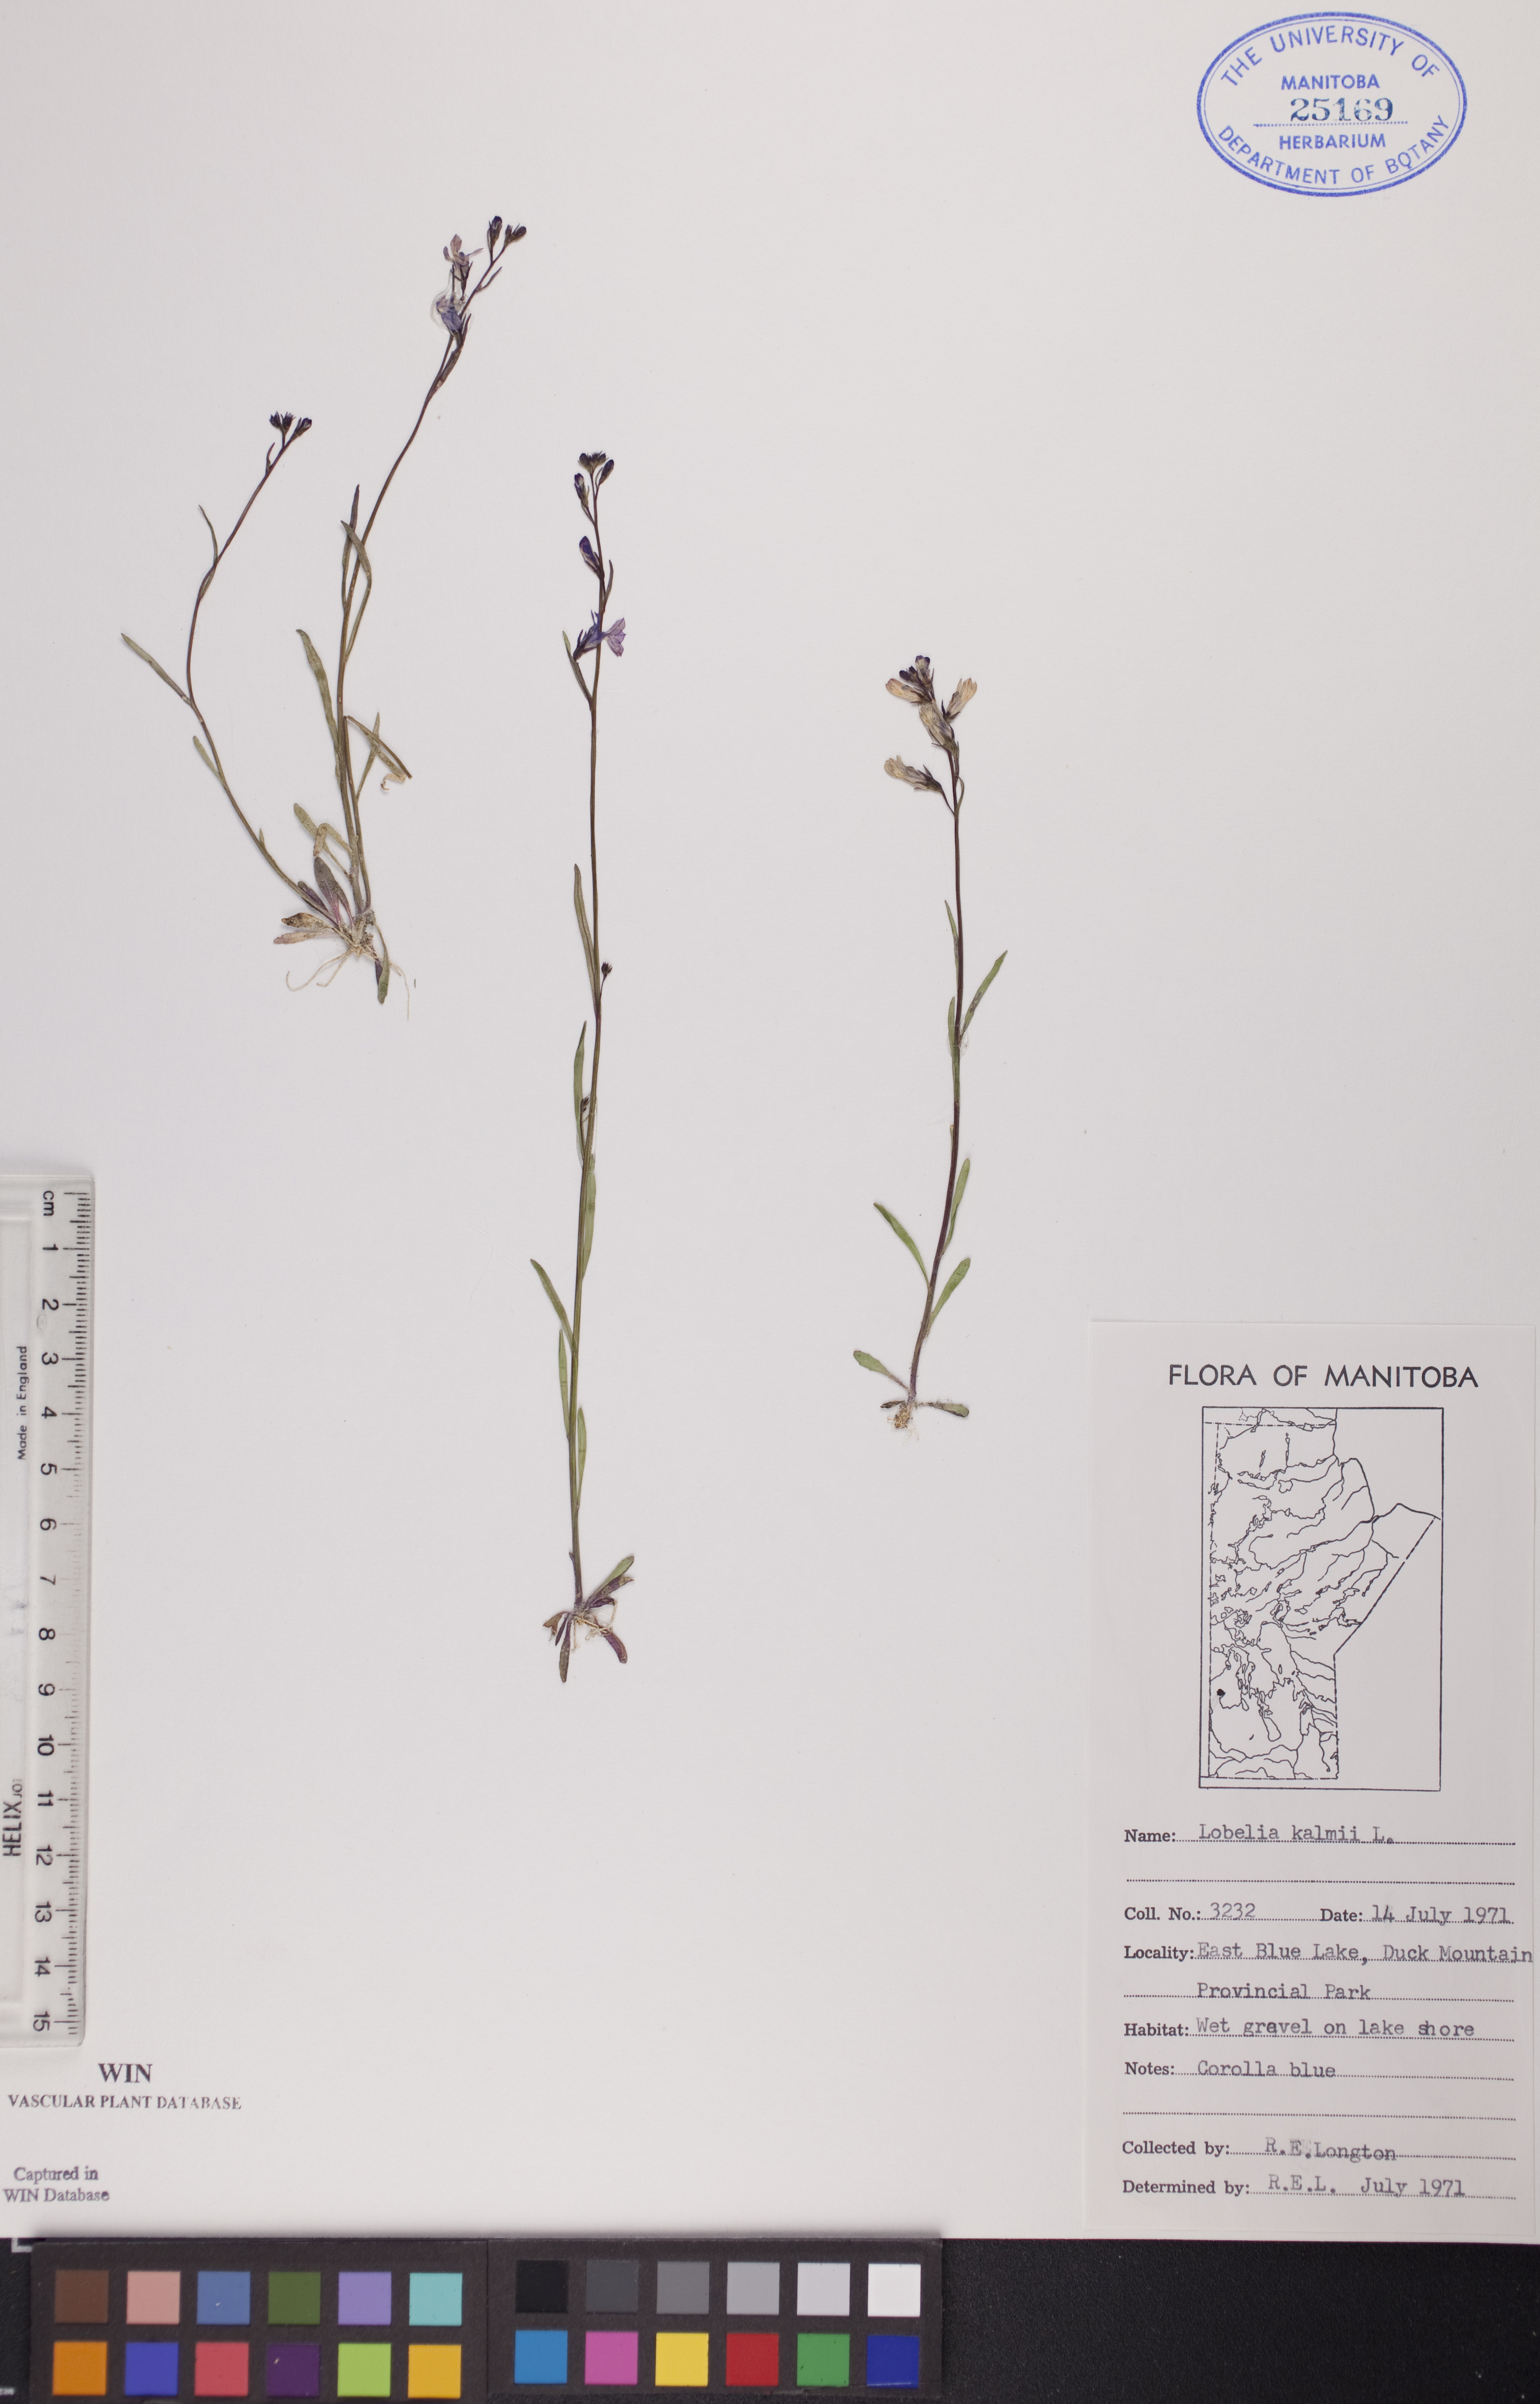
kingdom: Plantae
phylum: Tracheophyta
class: Magnoliopsida
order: Asterales
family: Campanulaceae
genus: Lobelia
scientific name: Lobelia kalmii
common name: Kalm's lobelia
